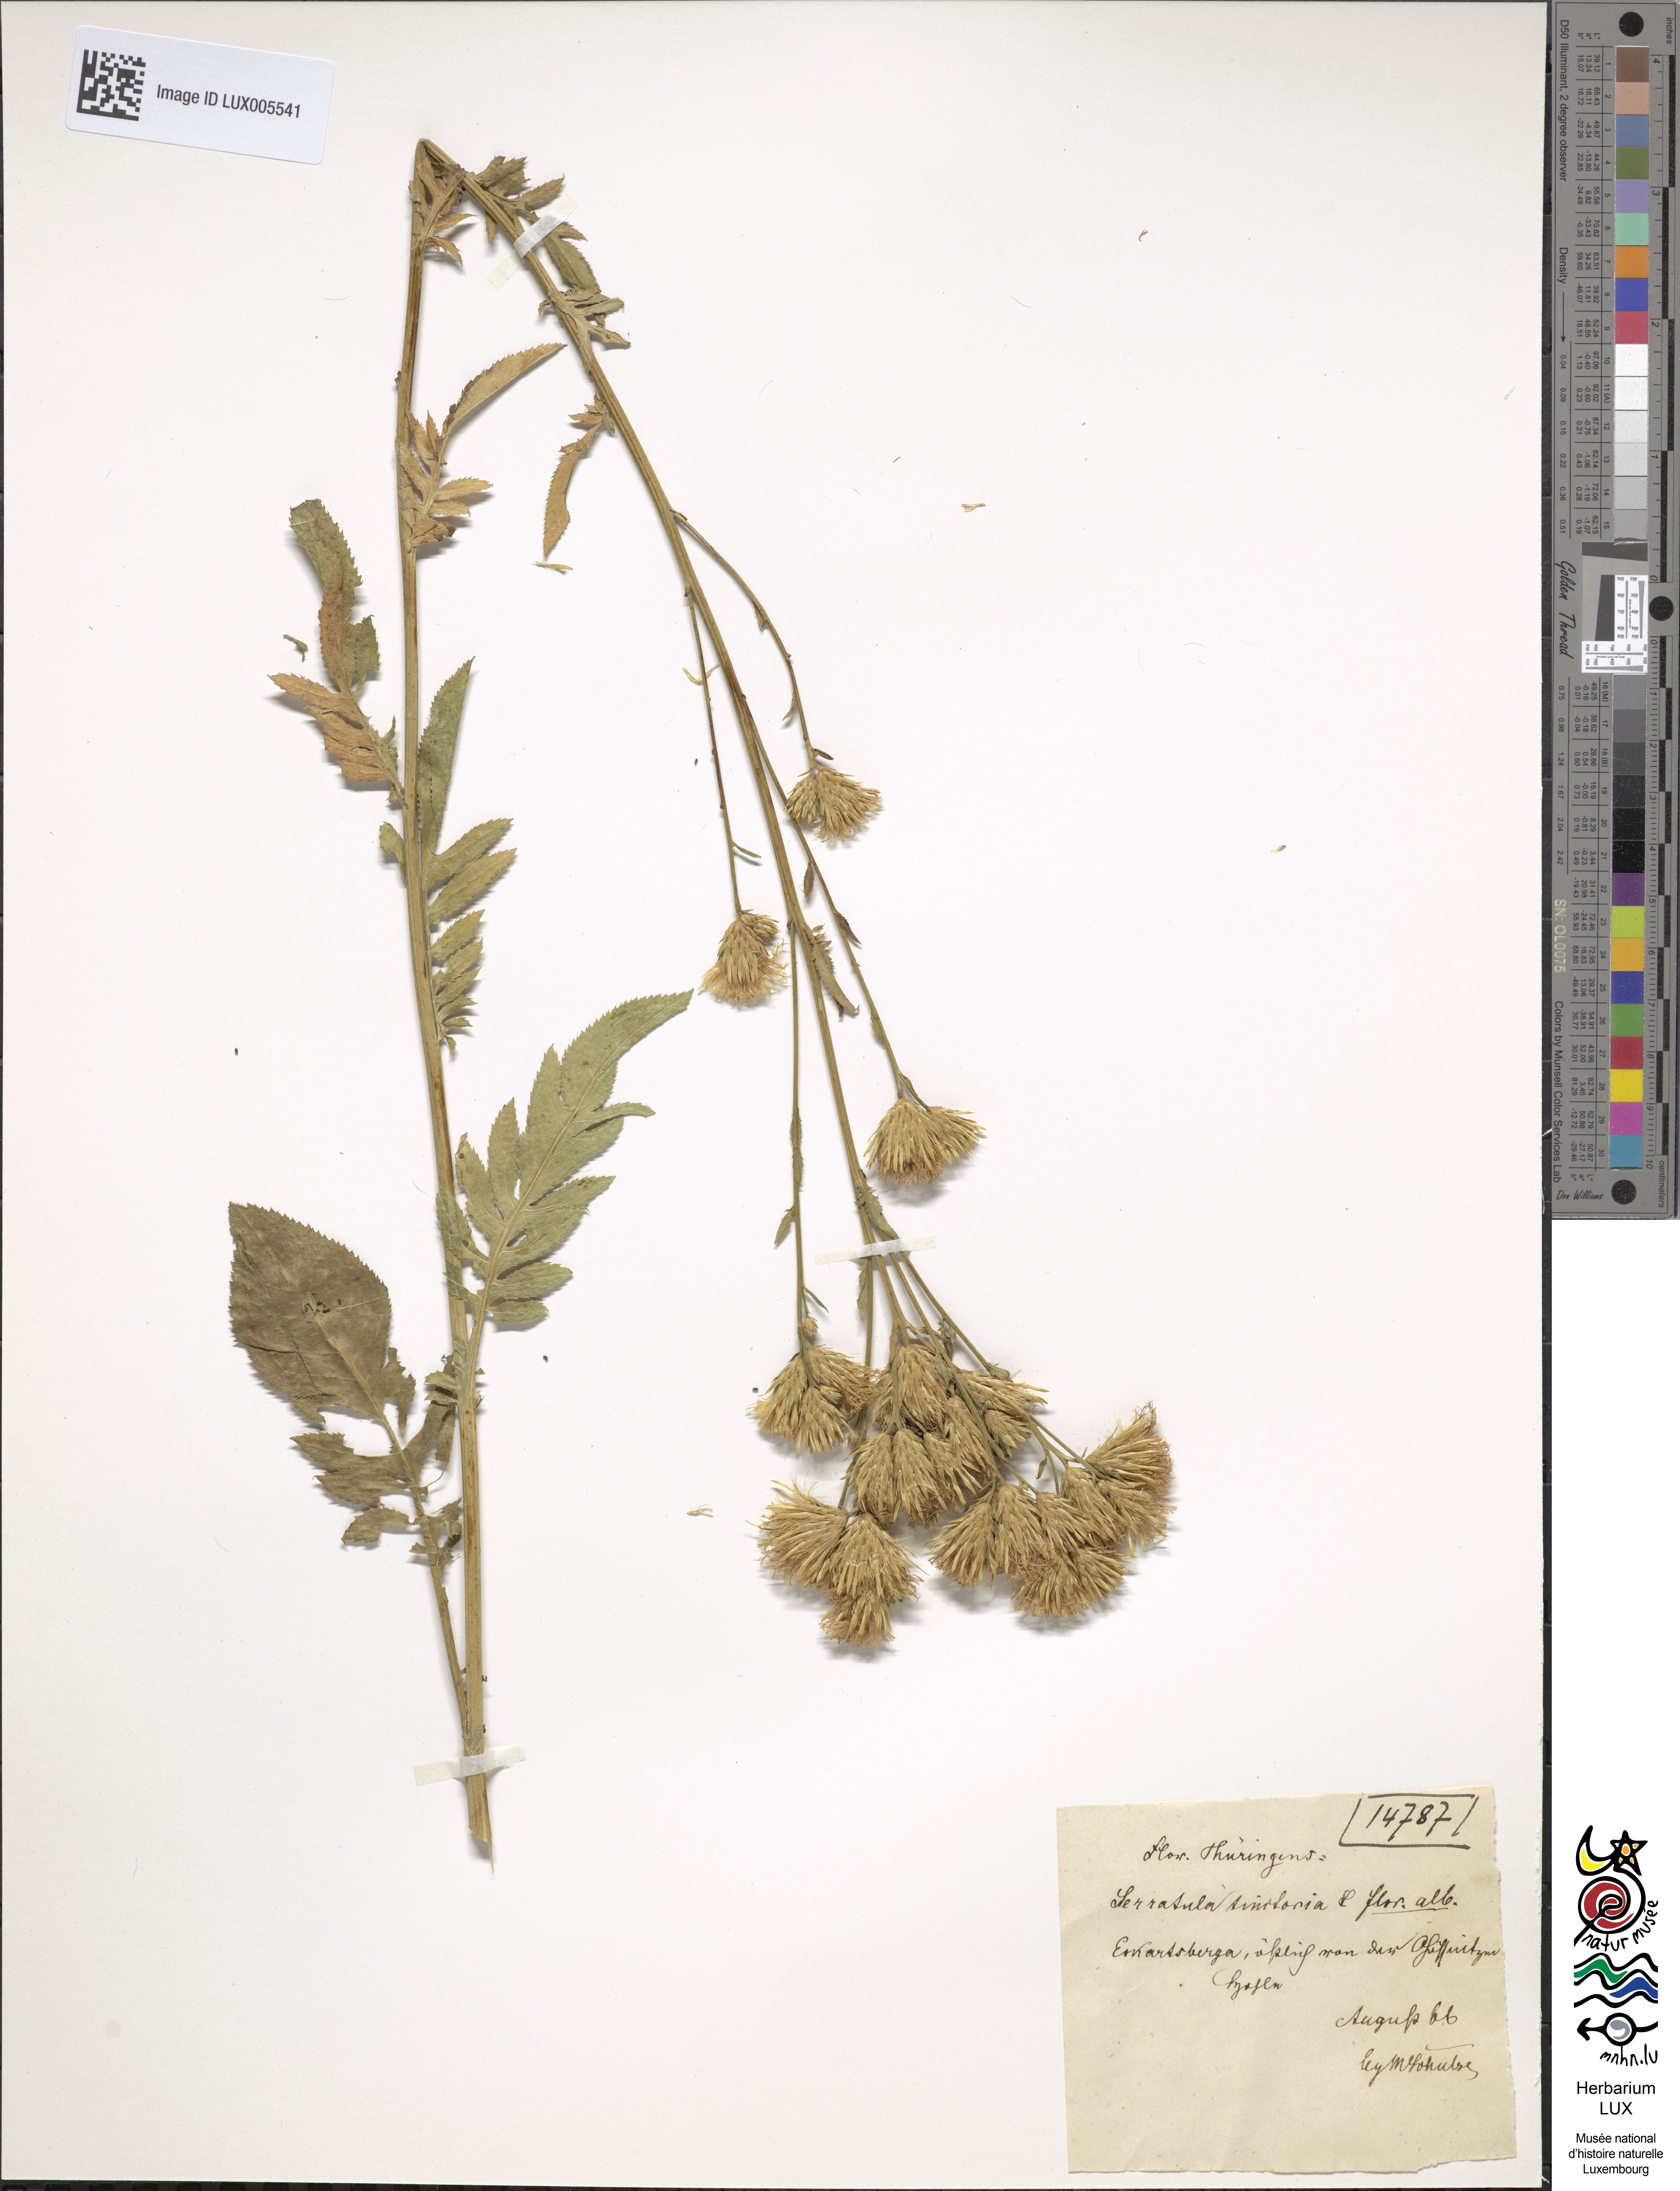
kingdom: Plantae
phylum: Tracheophyta
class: Magnoliopsida
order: Asterales
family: Asteraceae
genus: Serratula
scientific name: Serratula tinctoria
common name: Saw-wort
